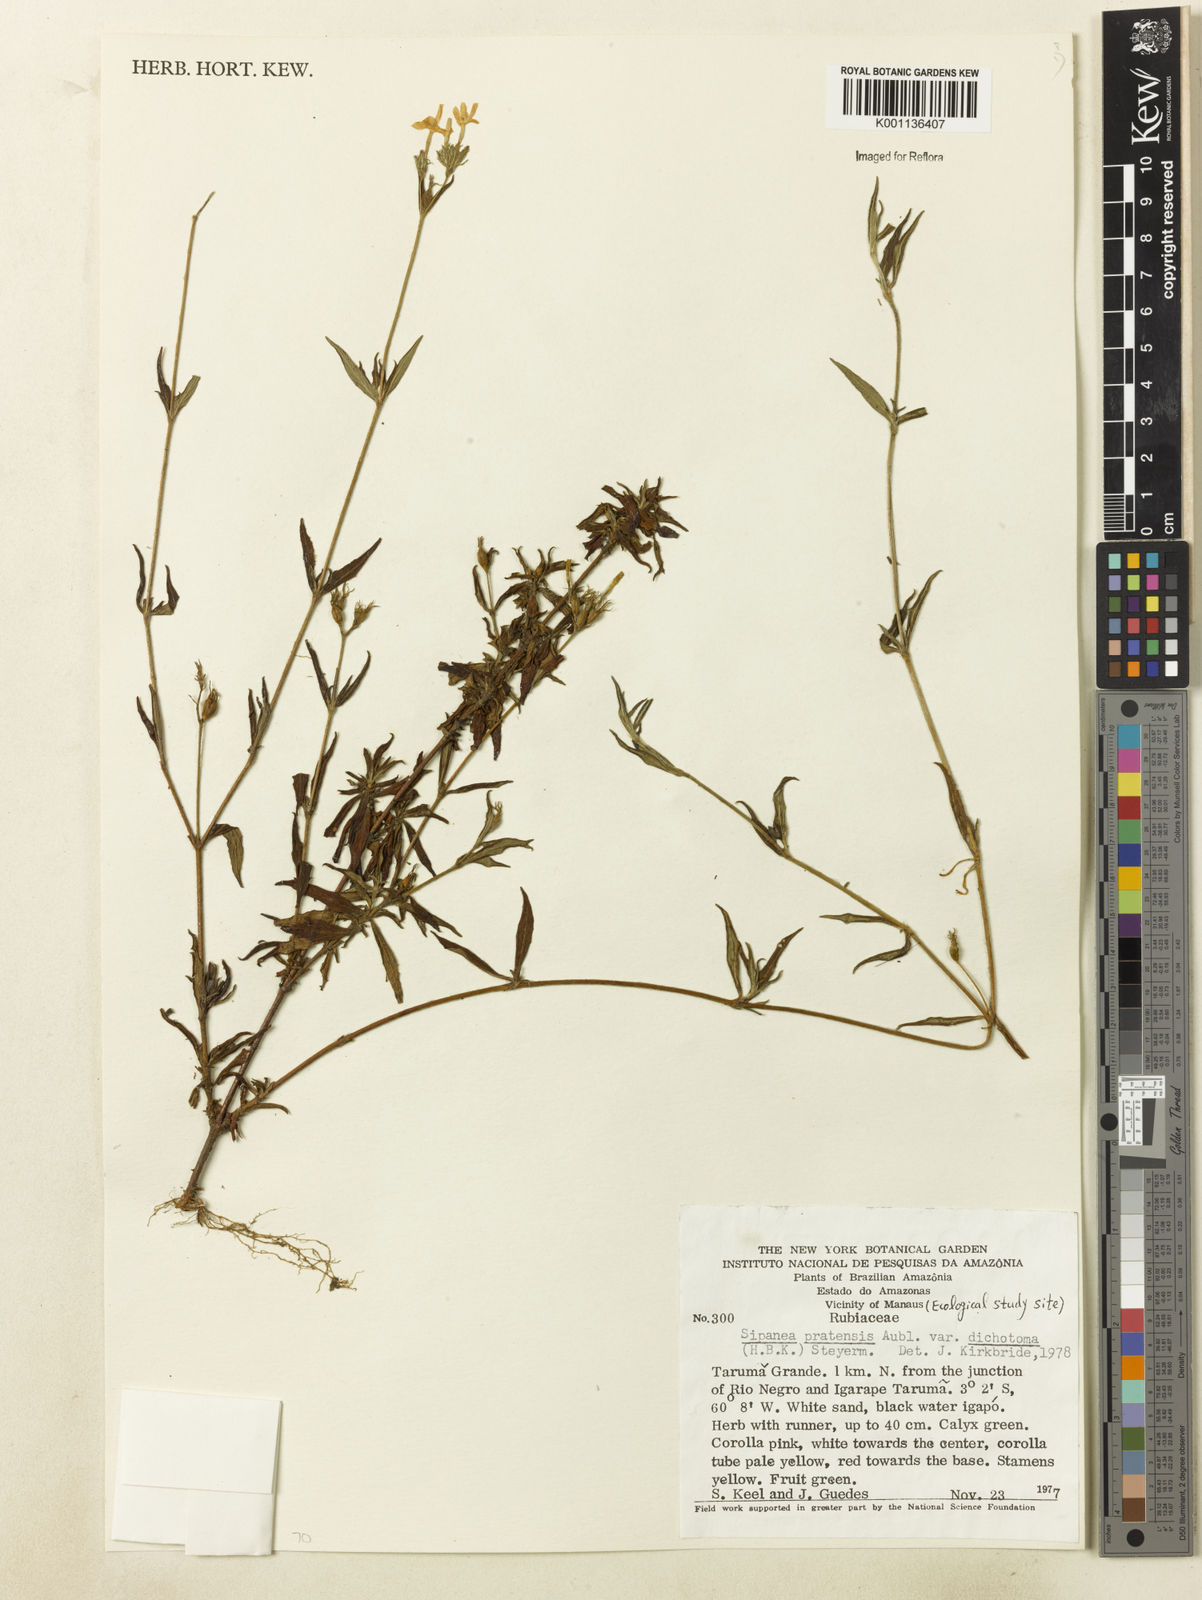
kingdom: Plantae
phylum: Tracheophyta
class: Magnoliopsida
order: Gentianales
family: Rubiaceae
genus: Sipanea
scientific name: Sipanea pratensis
